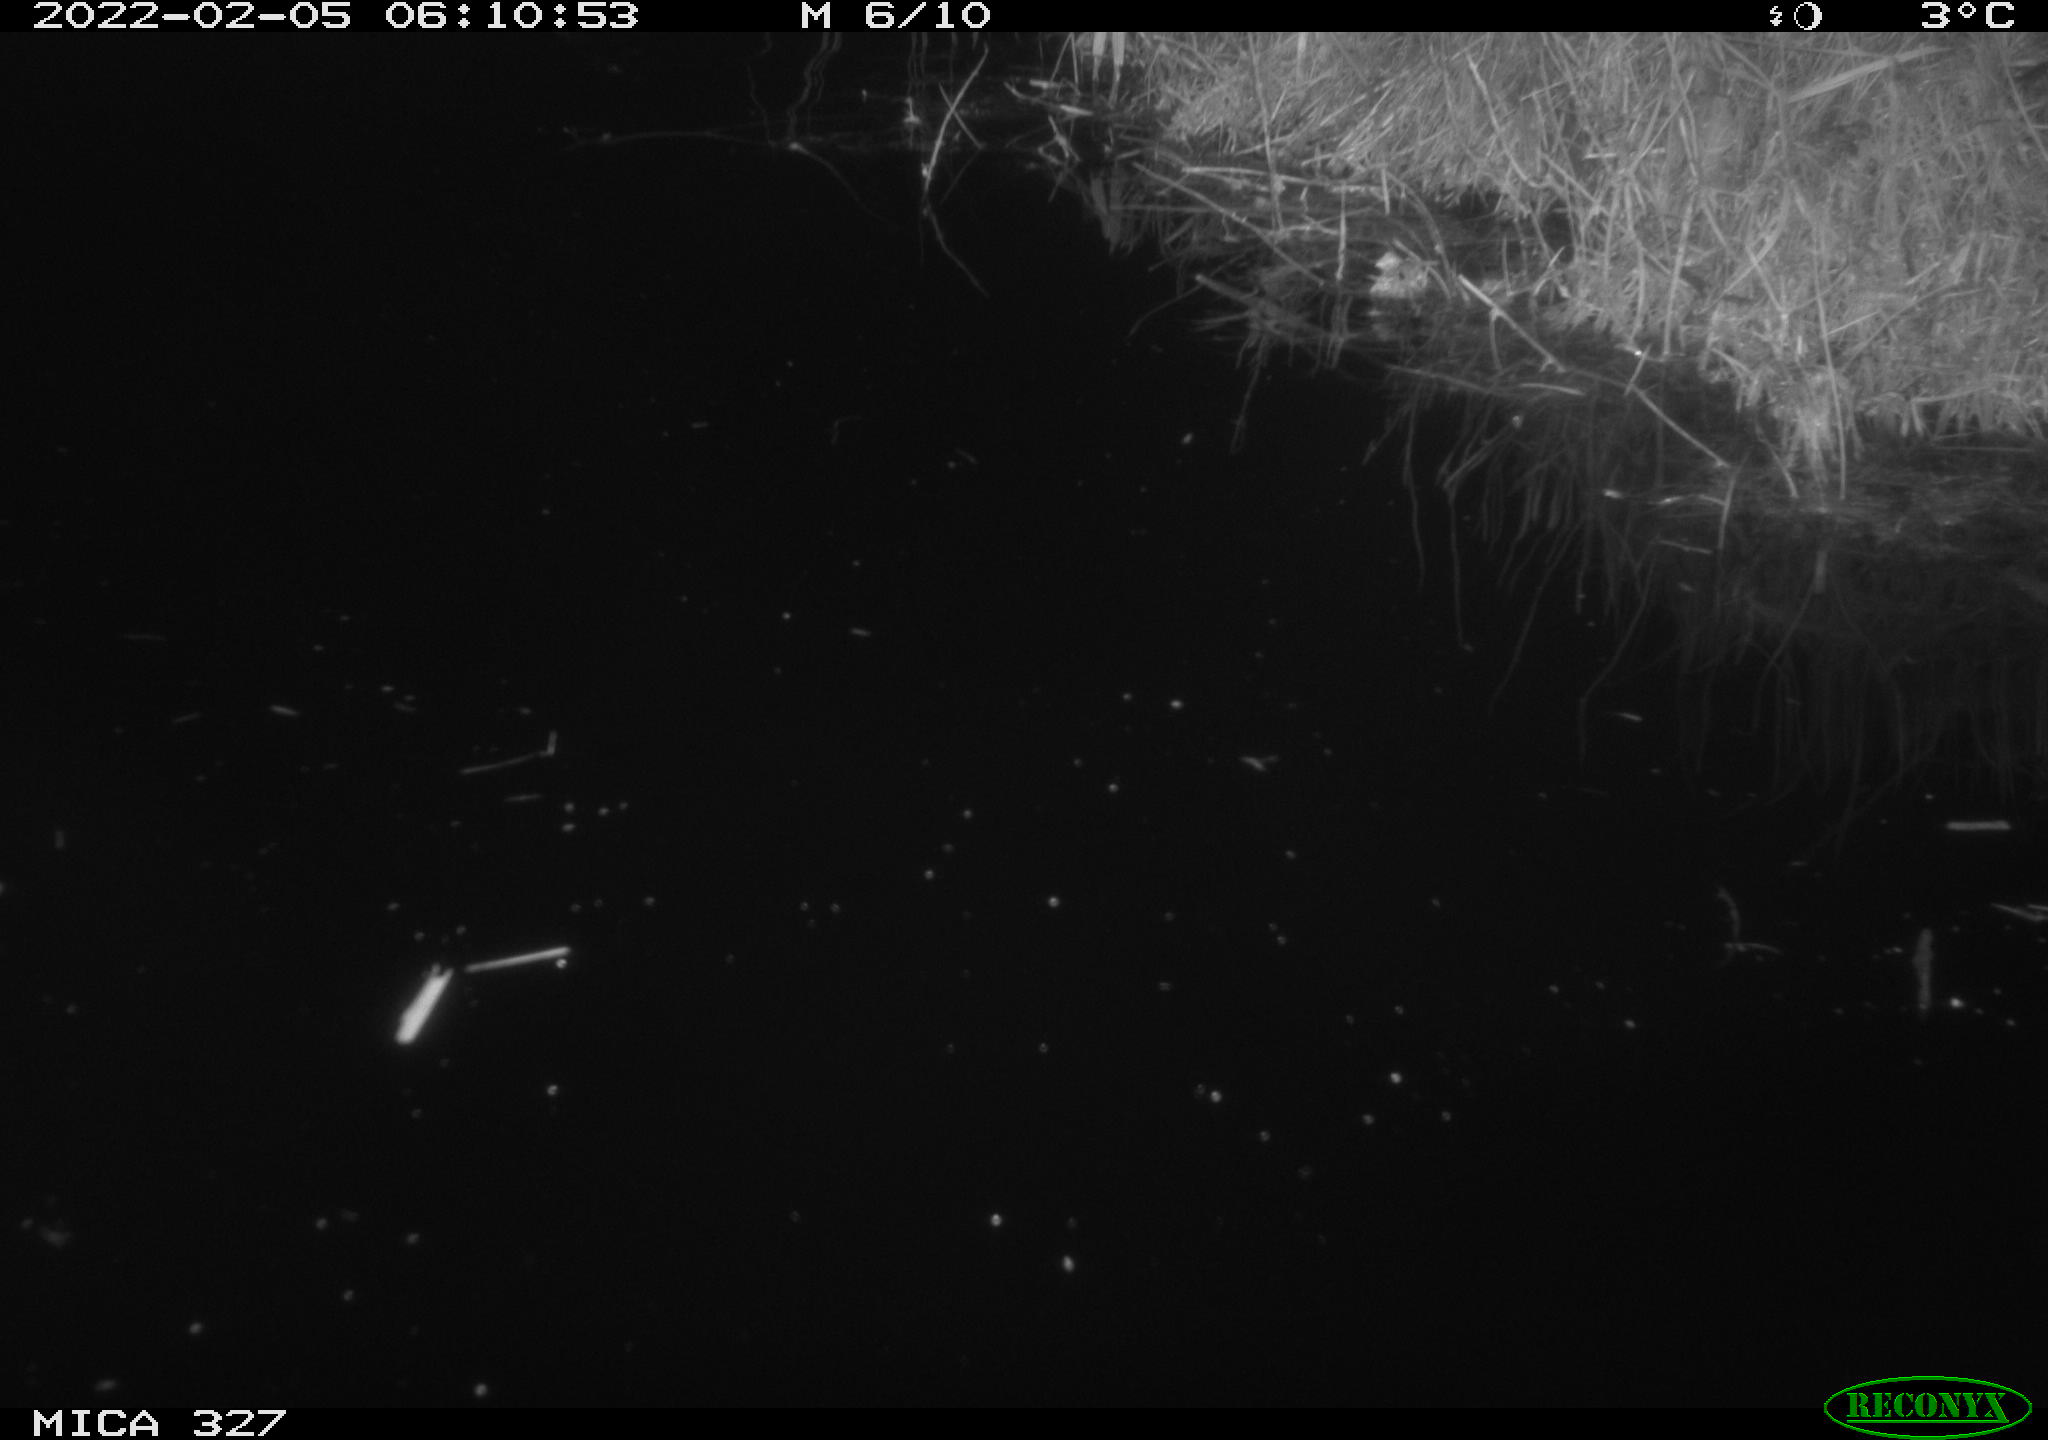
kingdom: Animalia
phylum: Chordata
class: Mammalia
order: Rodentia
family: Cricetidae
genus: Ondatra
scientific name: Ondatra zibethicus
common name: Muskrat
